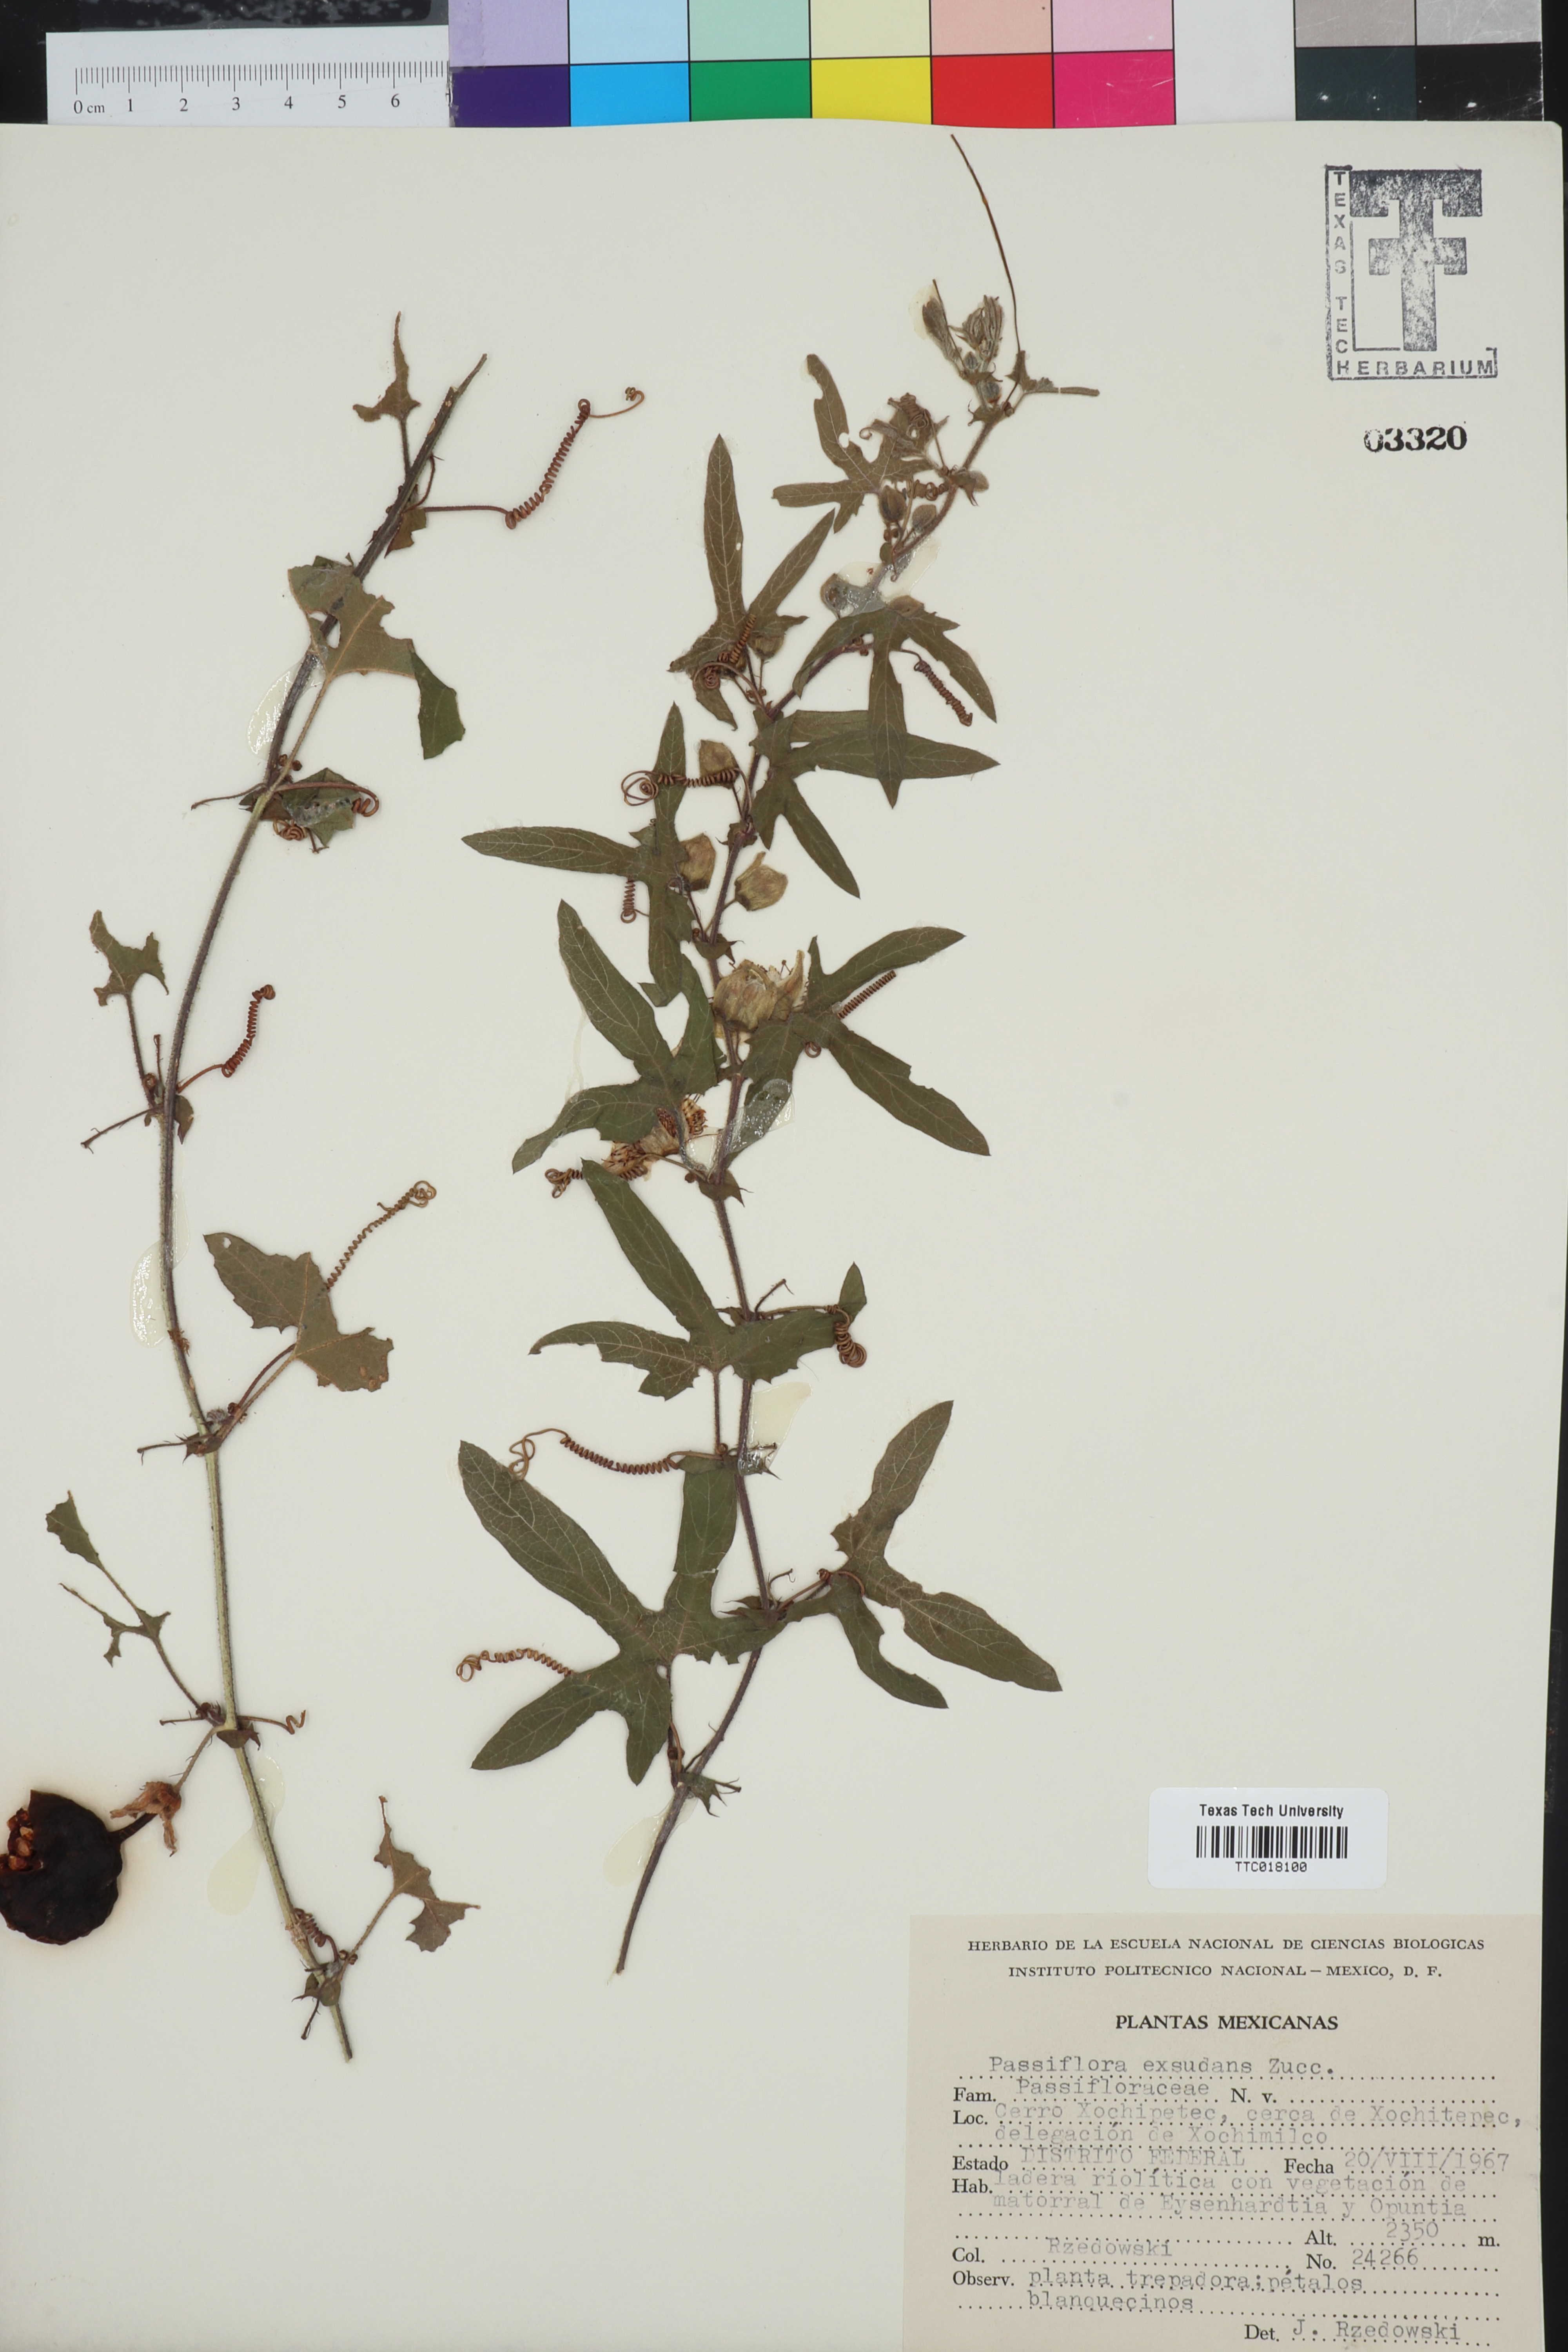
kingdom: Plantae
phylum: Tracheophyta
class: Magnoliopsida
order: Malpighiales
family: Passifloraceae
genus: Passiflora
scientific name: Passiflora exsudans
